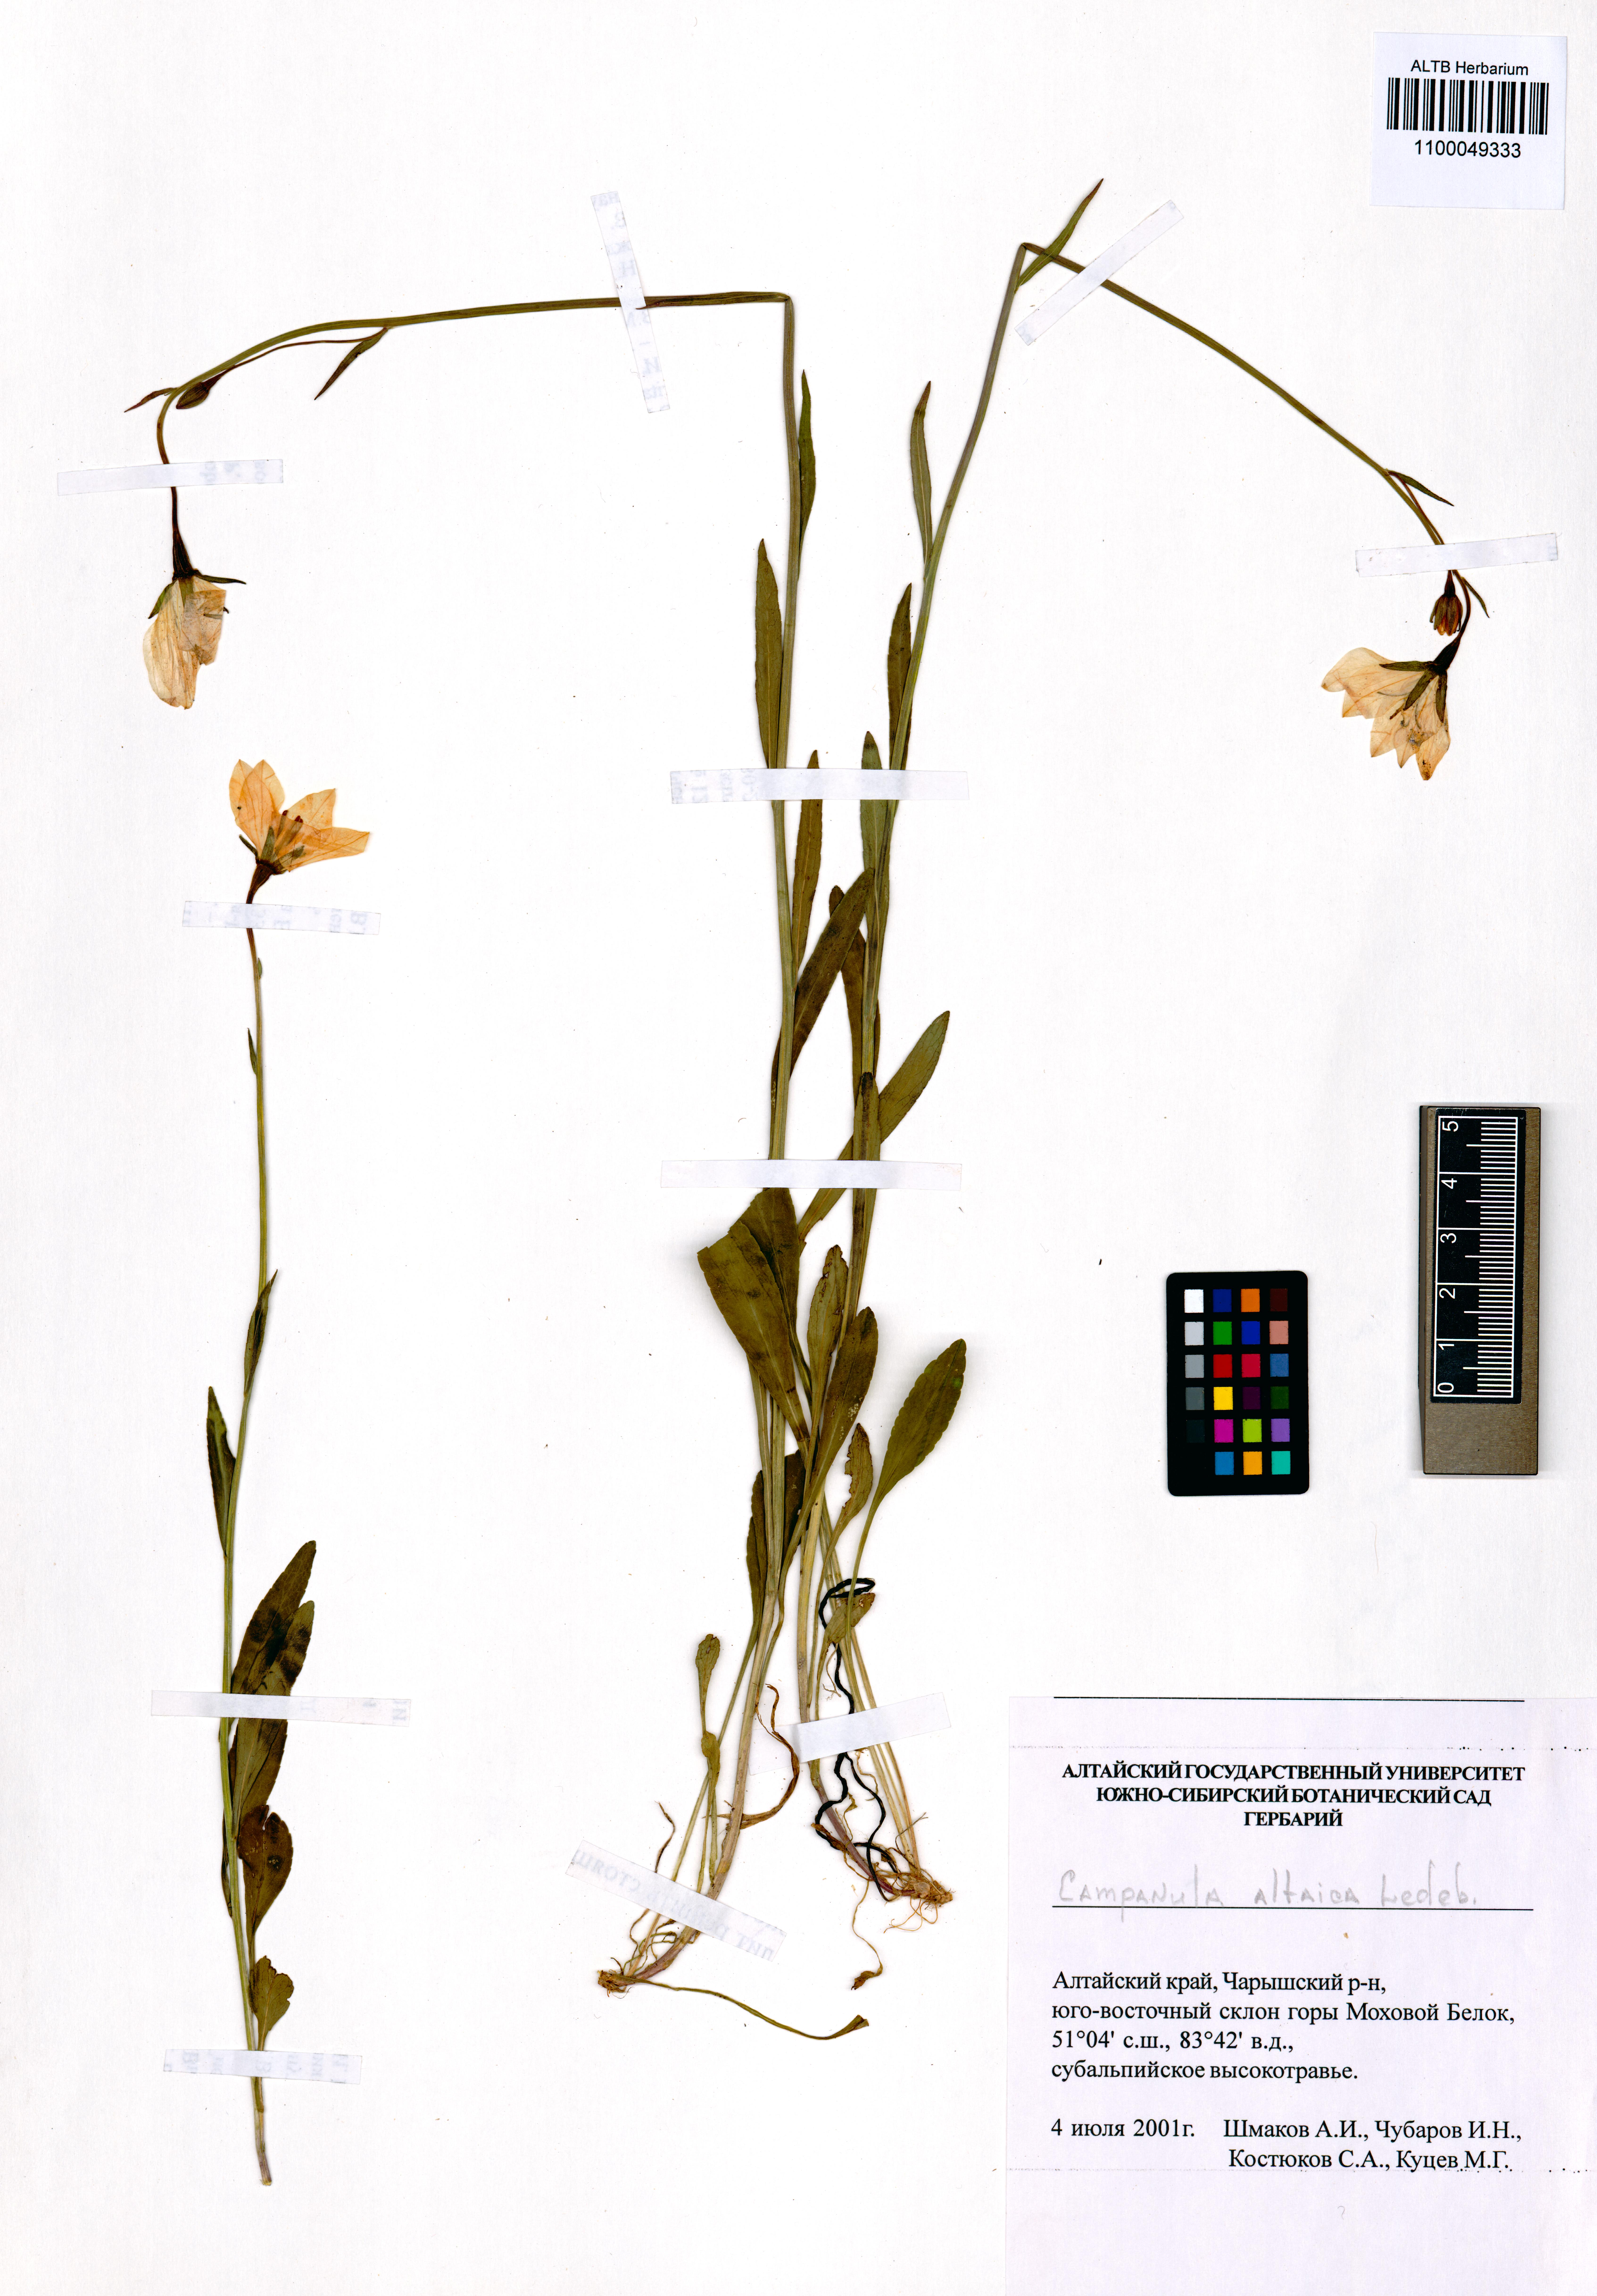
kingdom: Plantae
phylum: Tracheophyta
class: Magnoliopsida
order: Asterales
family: Campanulaceae
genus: Campanula
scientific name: Campanula stevenii
